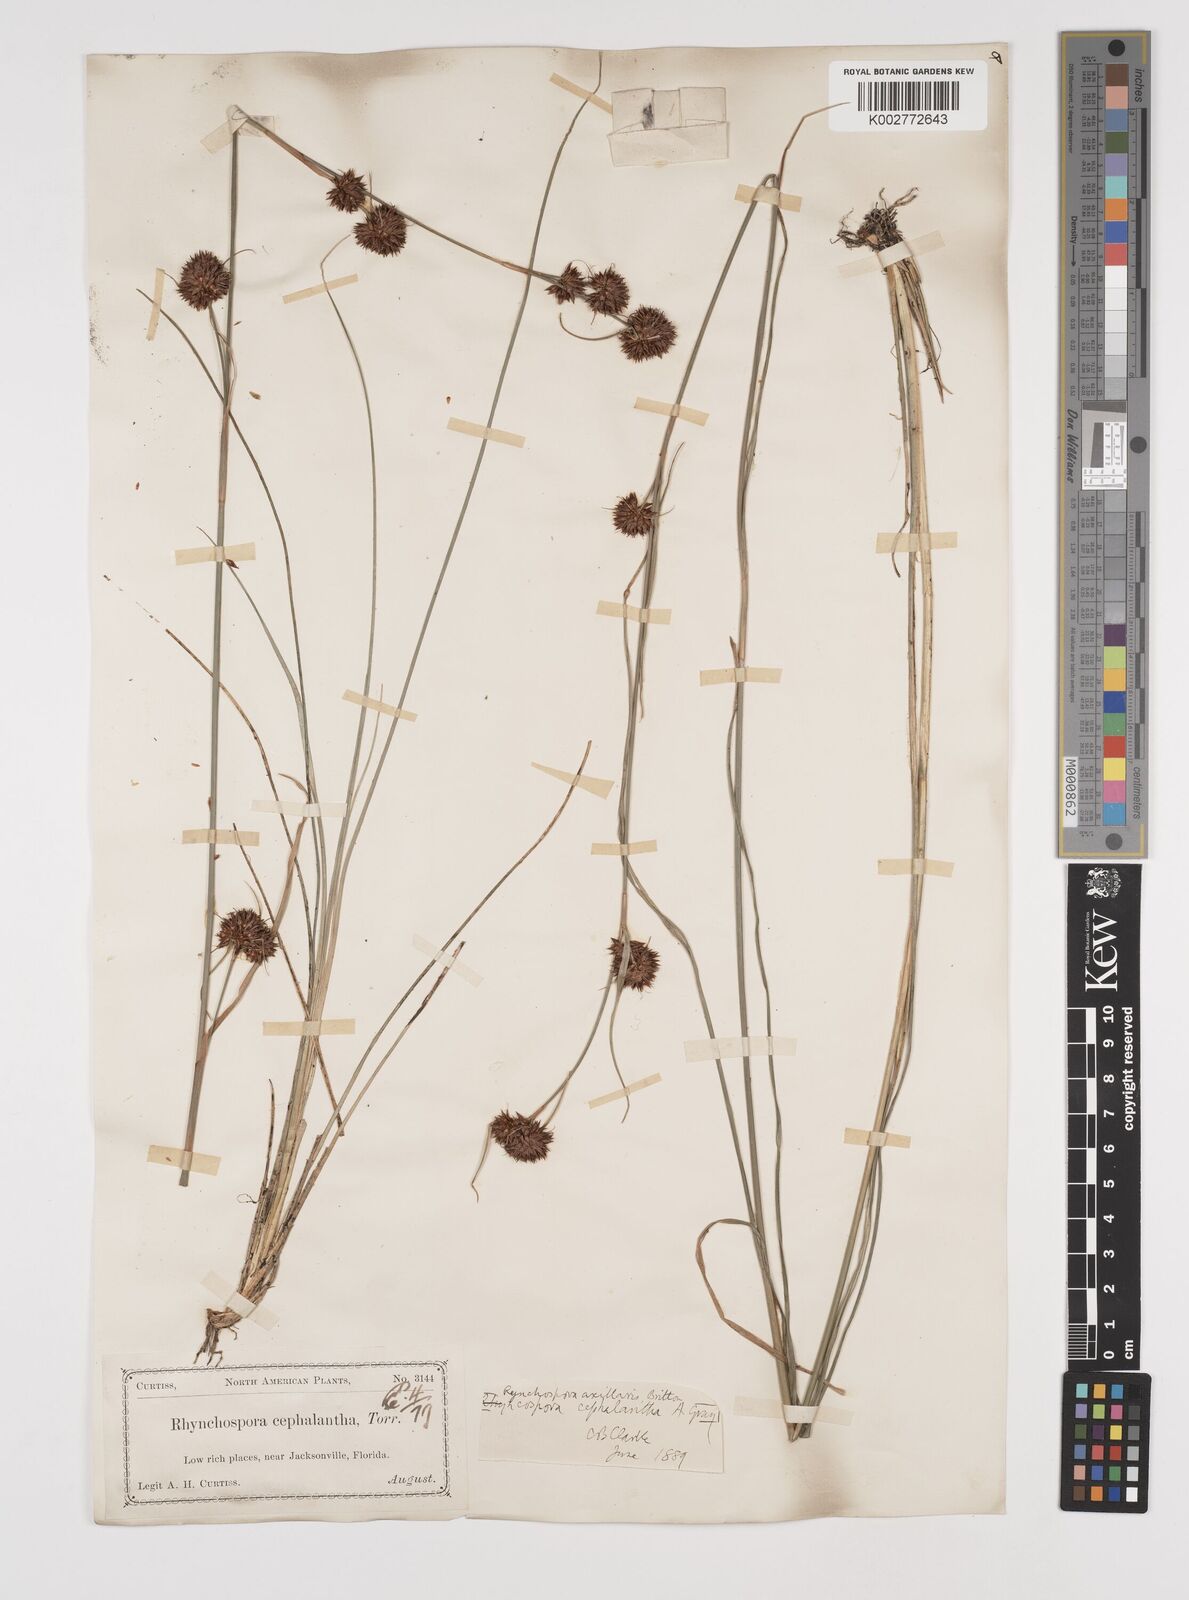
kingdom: Plantae
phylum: Tracheophyta
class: Liliopsida
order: Poales
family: Cyperaceae
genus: Rhynchospora
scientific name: Rhynchospora glomerata
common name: Cluster beak sedge
